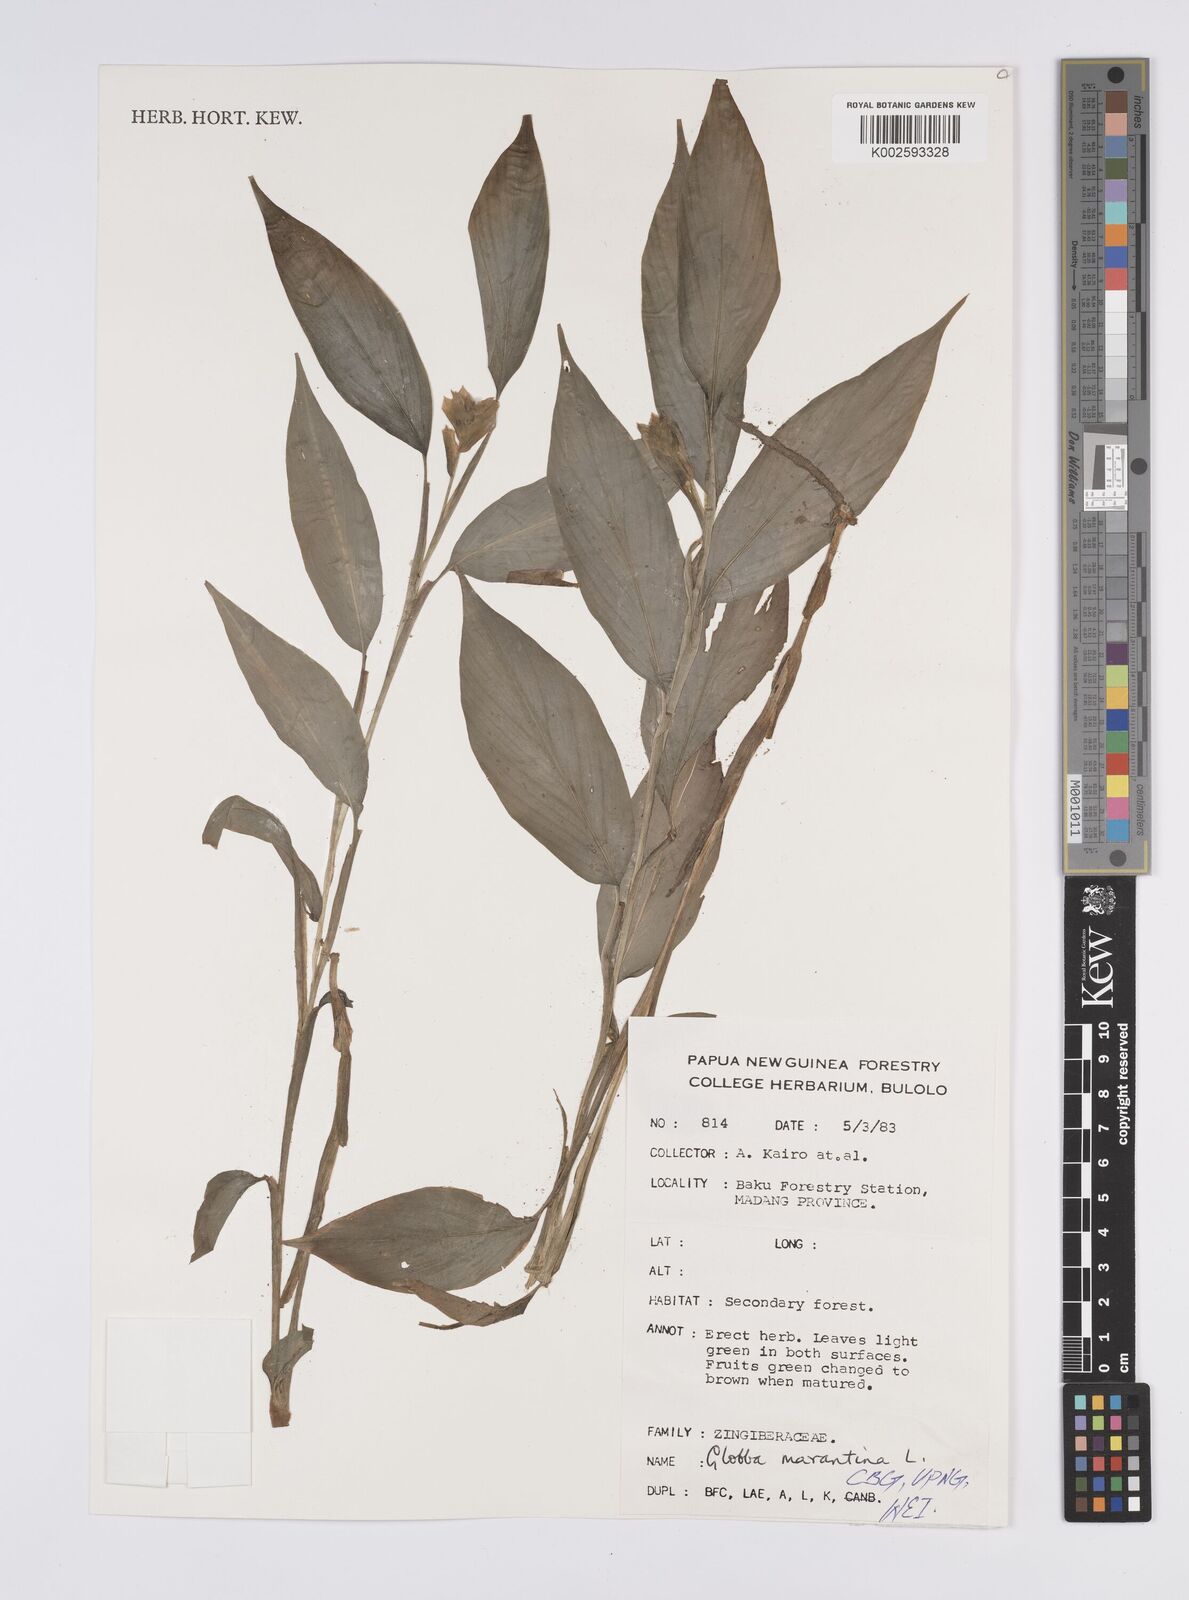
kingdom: Plantae
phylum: Tracheophyta
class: Liliopsida
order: Zingiberales
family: Zingiberaceae
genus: Globba
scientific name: Globba marantina
